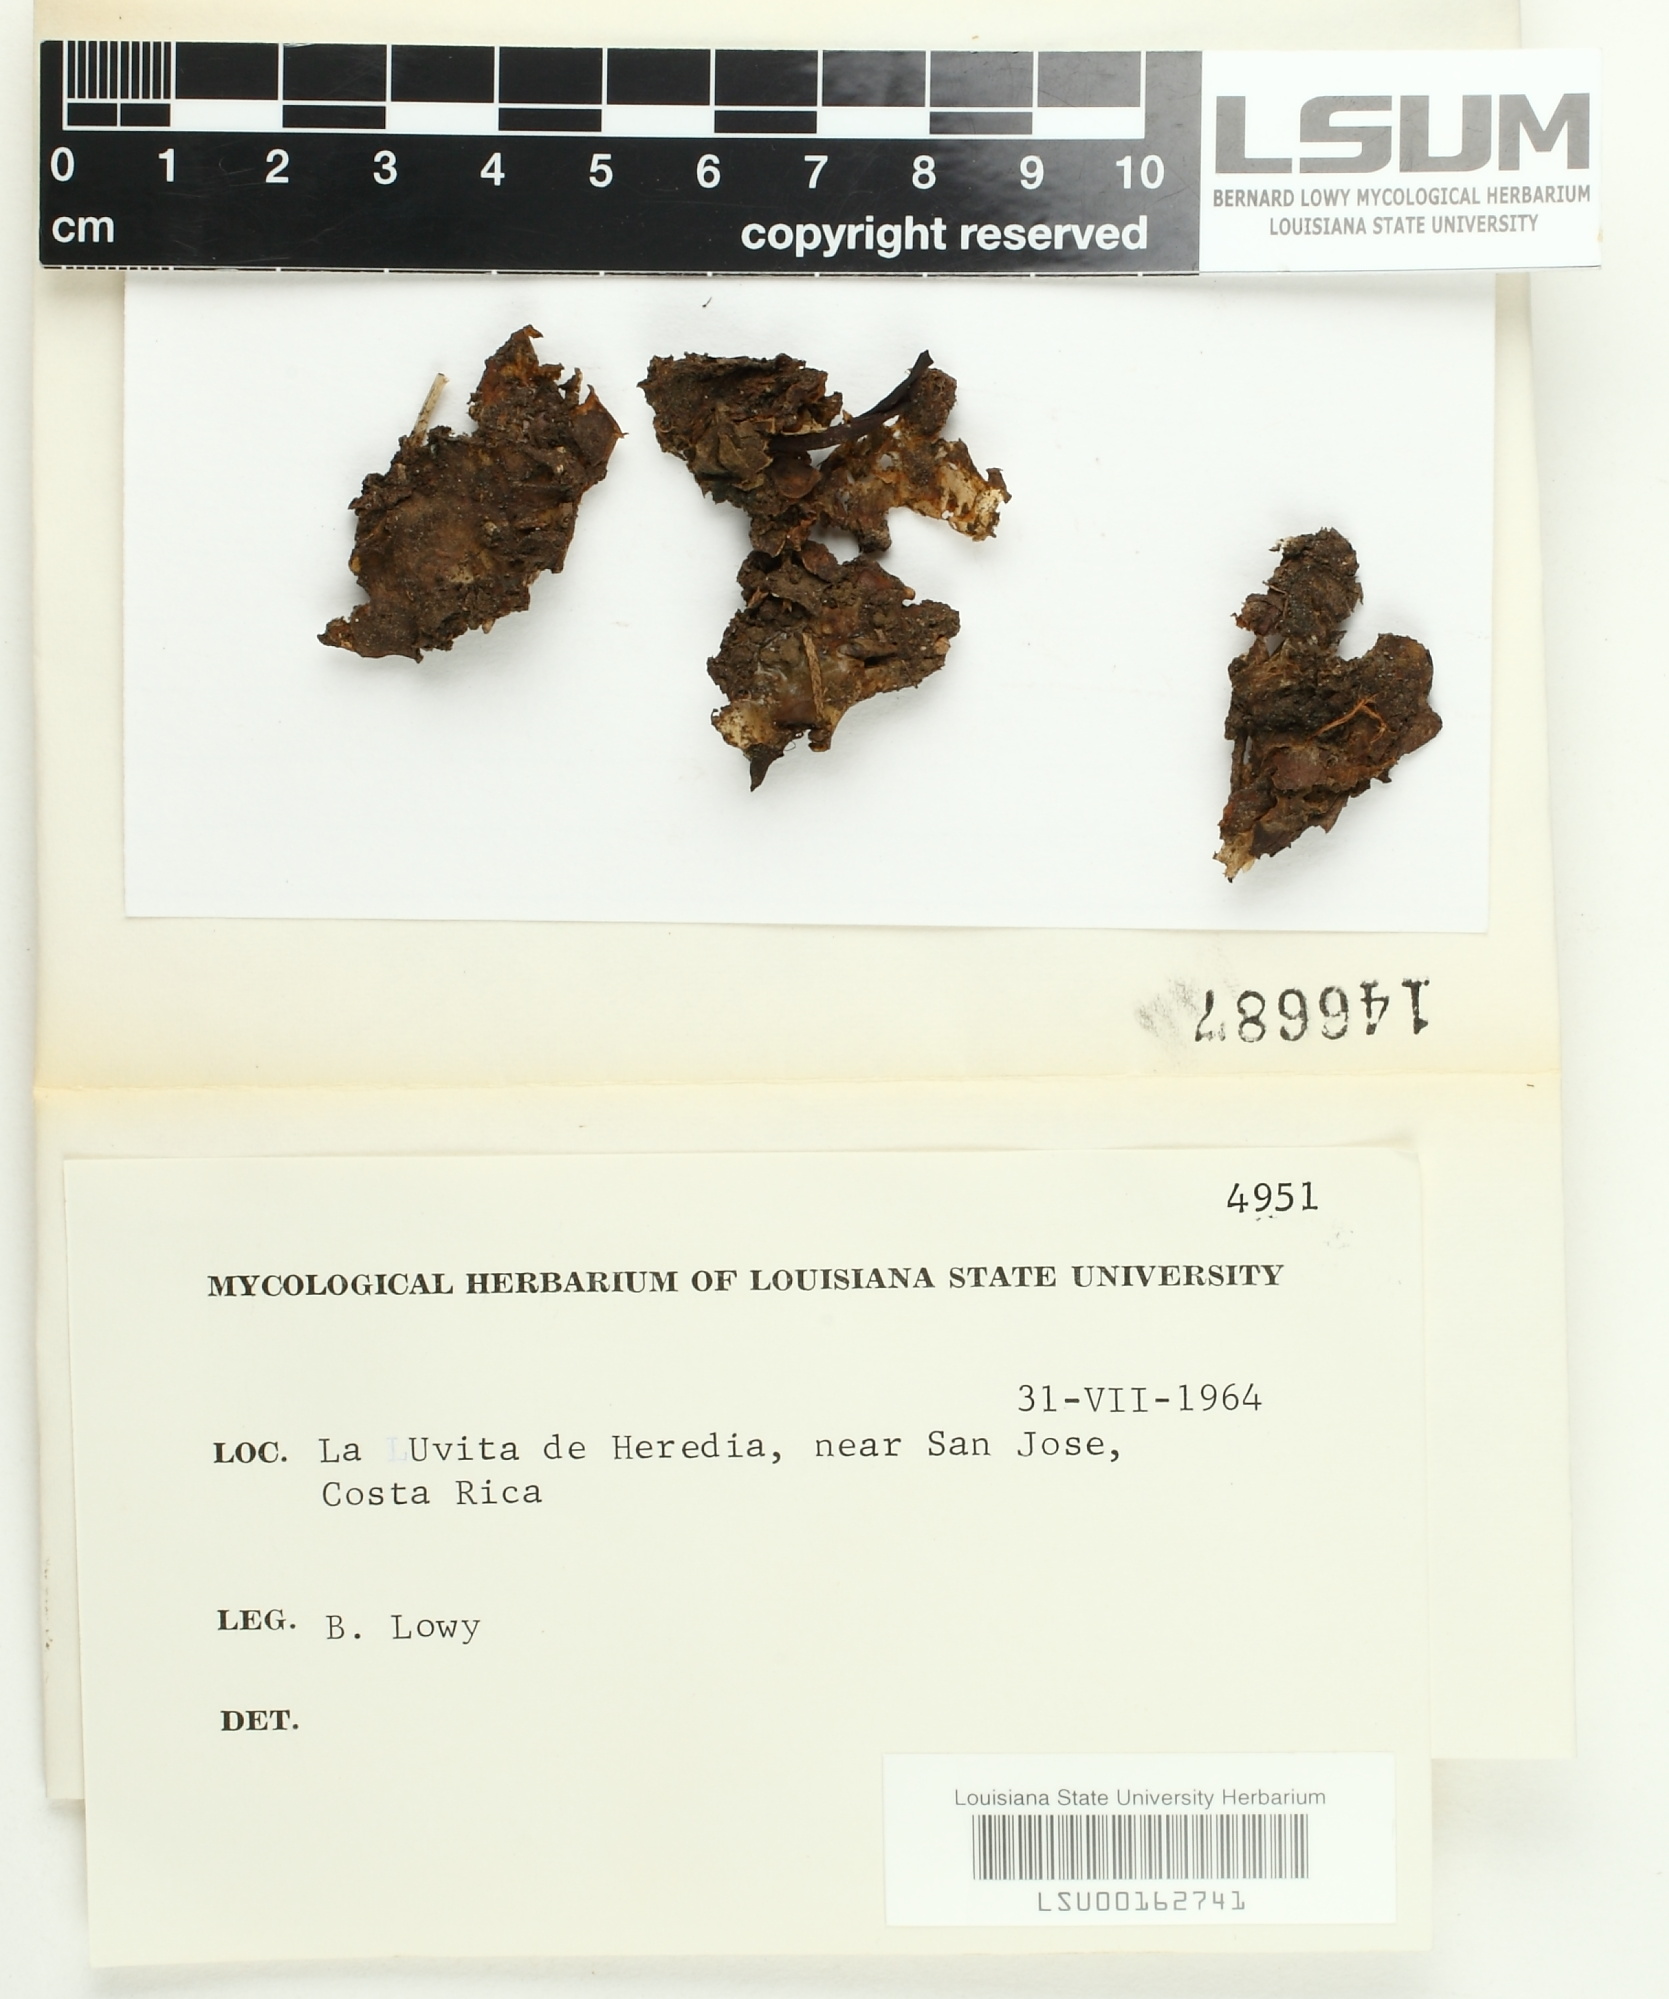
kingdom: Fungi
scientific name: Fungi
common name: Fungi
